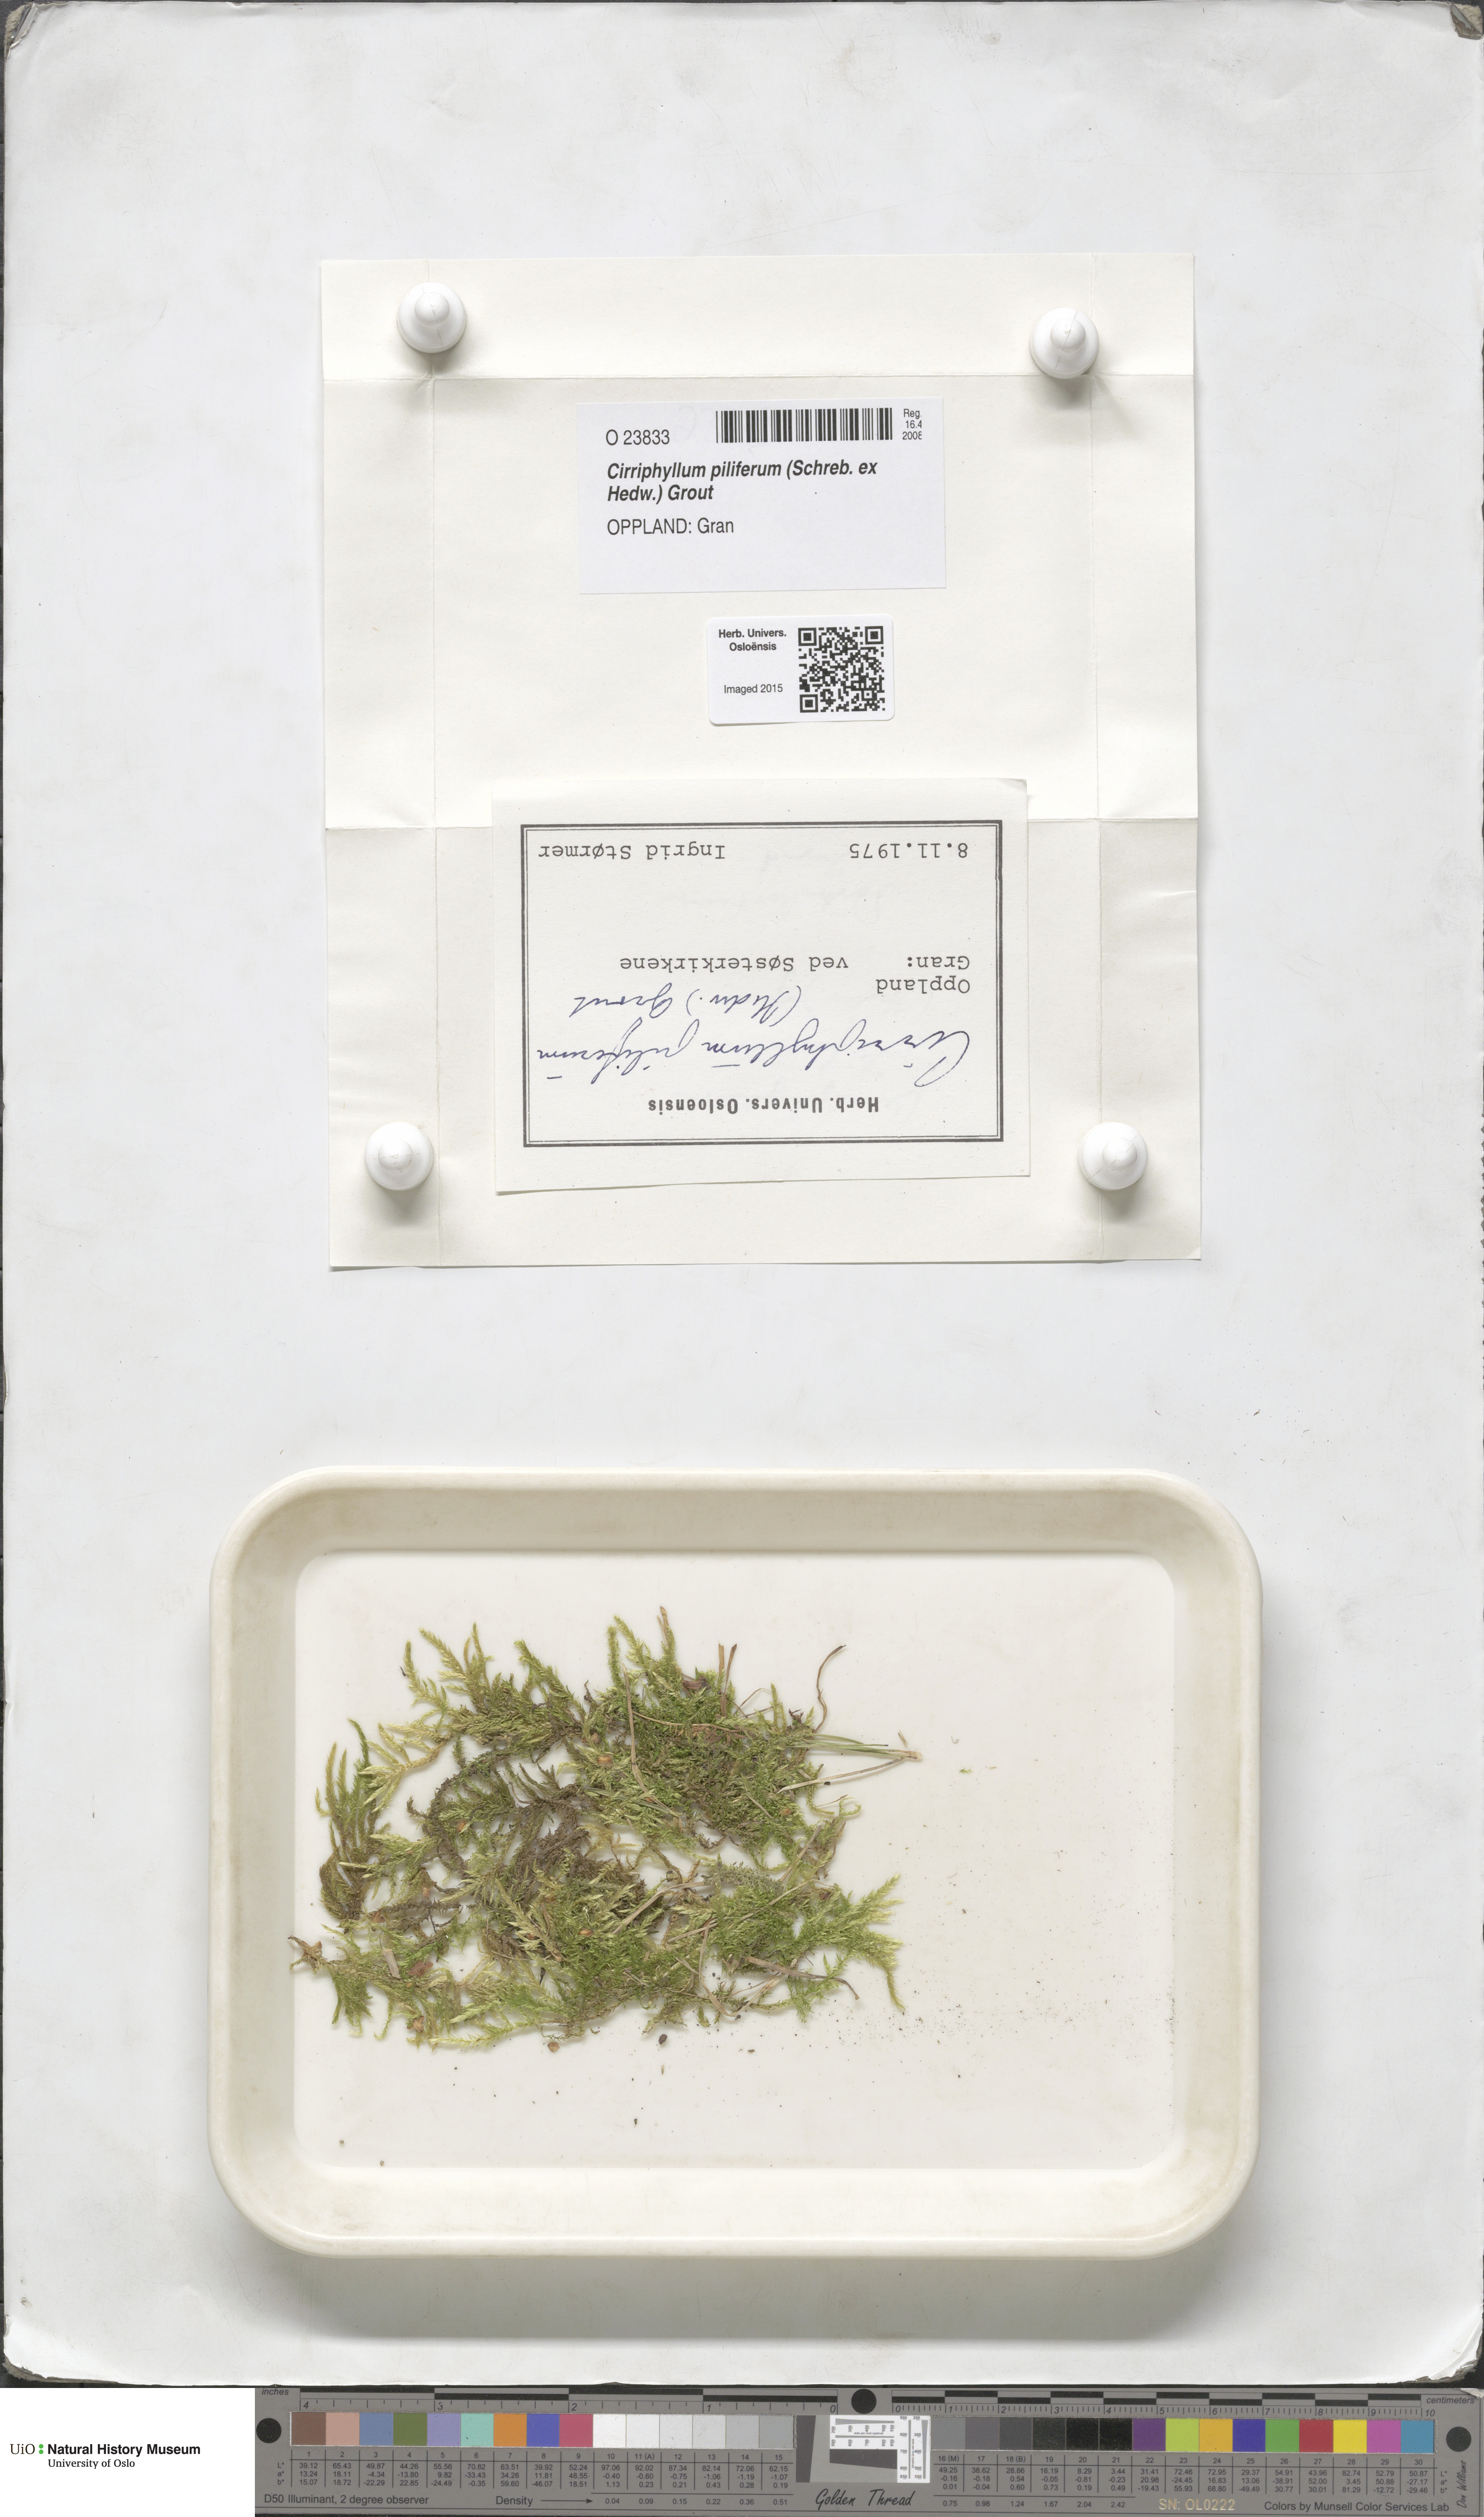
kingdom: Plantae
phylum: Bryophyta
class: Bryopsida
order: Hypnales
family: Brachytheciaceae
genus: Cirriphyllum
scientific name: Cirriphyllum piliferum
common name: Hair-pointed moss
